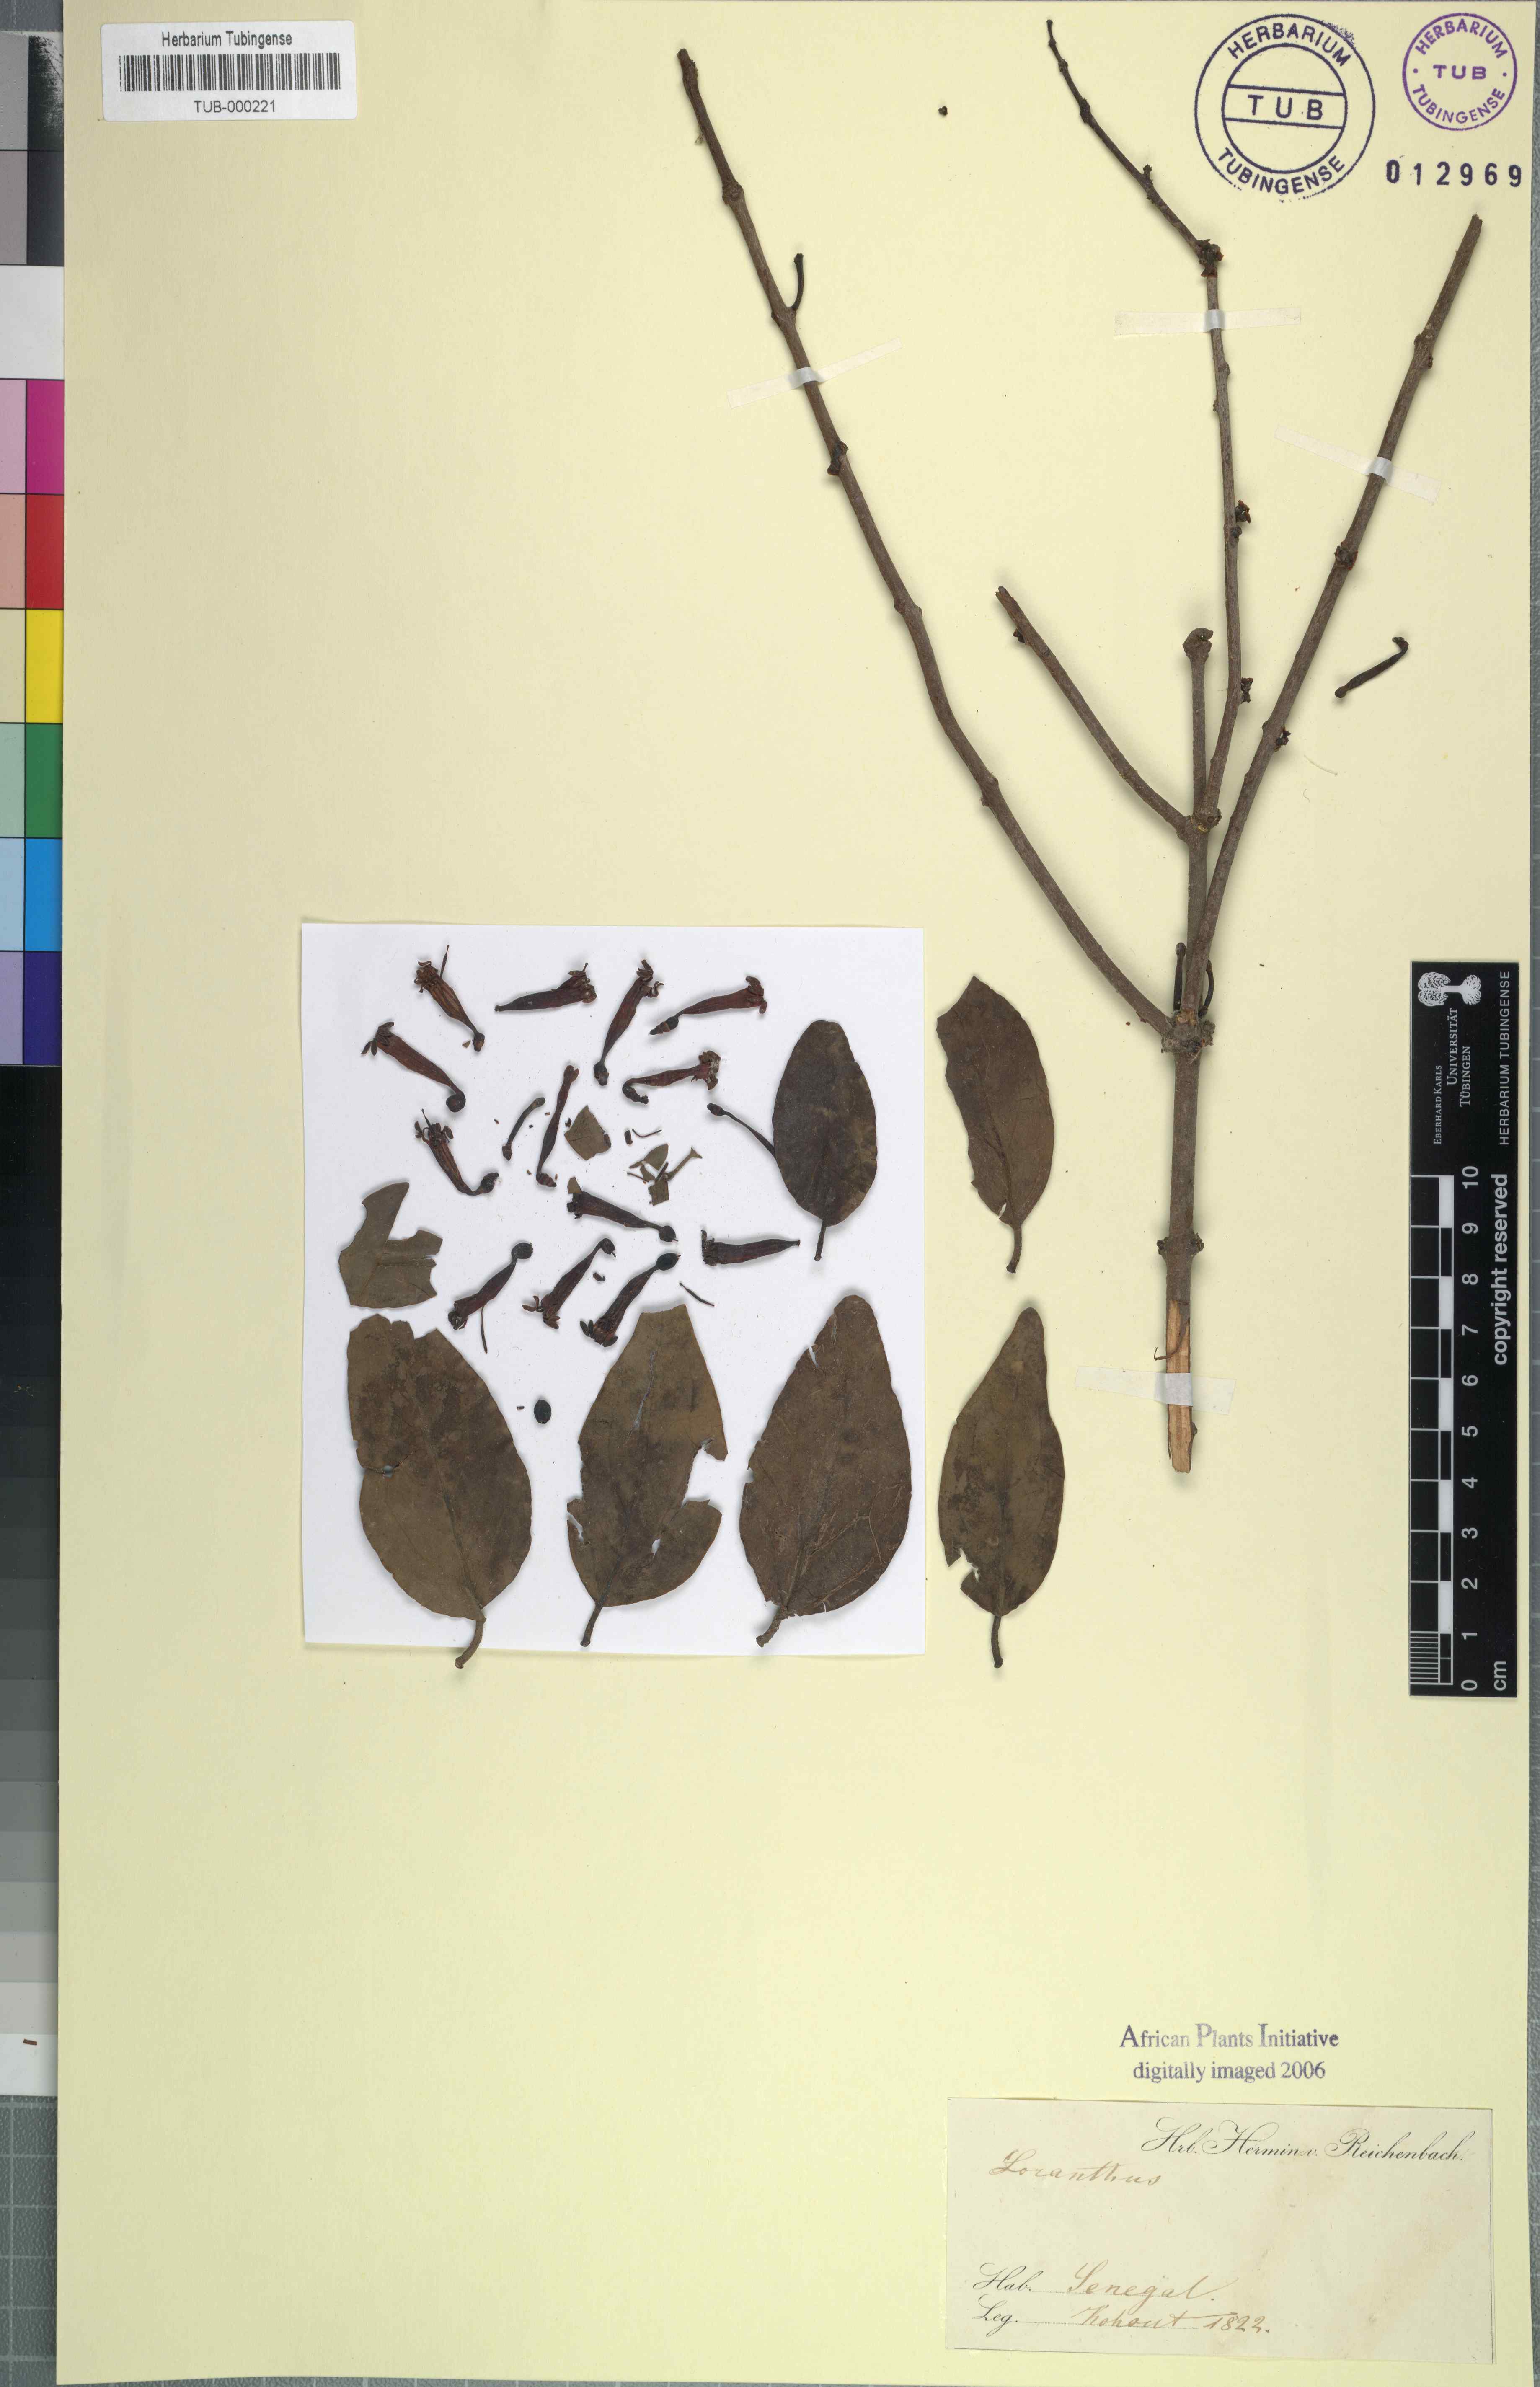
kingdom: Plantae
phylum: Tracheophyta
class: Magnoliopsida
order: Santalales
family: Loranthaceae
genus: Loranthus
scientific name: Loranthus
